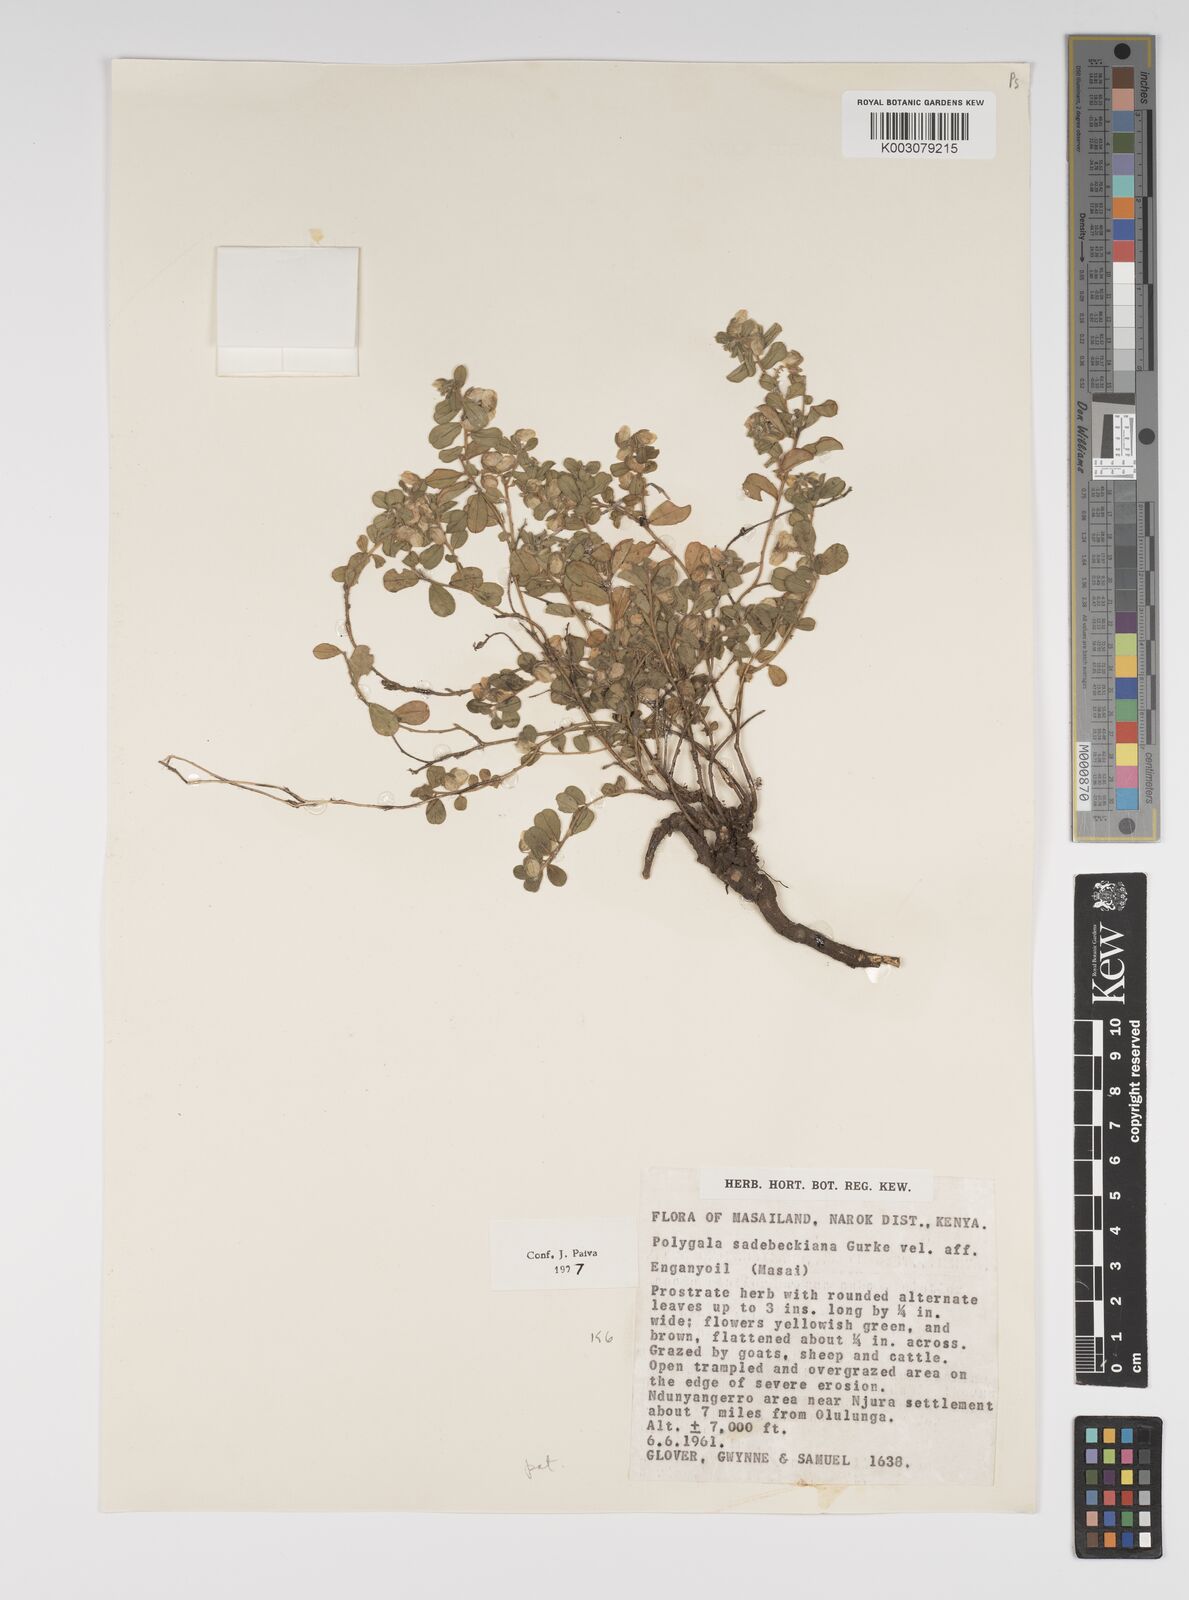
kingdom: Plantae
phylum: Tracheophyta
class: Magnoliopsida
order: Fabales
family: Polygalaceae
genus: Polygala
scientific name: Polygala sadebeckiana
